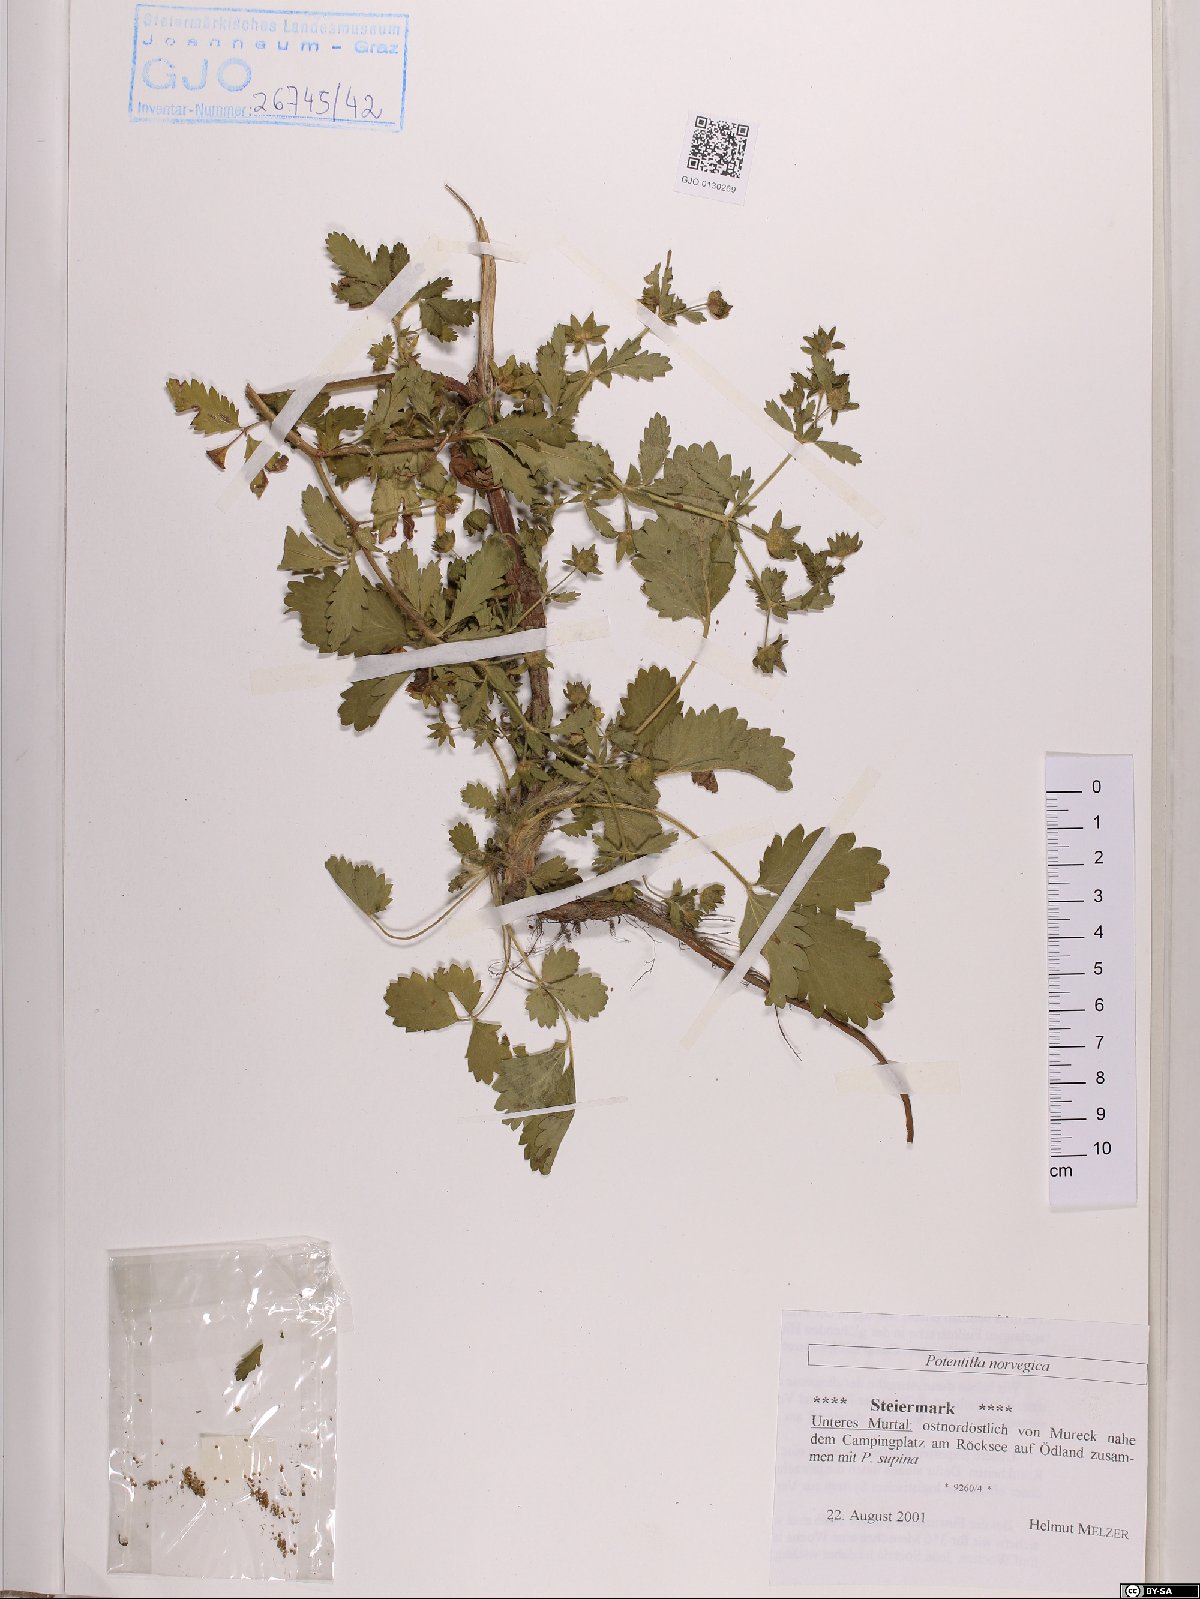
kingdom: Plantae
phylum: Tracheophyta
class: Magnoliopsida
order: Rosales
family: Rosaceae
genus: Potentilla
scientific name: Potentilla norvegica
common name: Ternate-leaved cinquefoil
